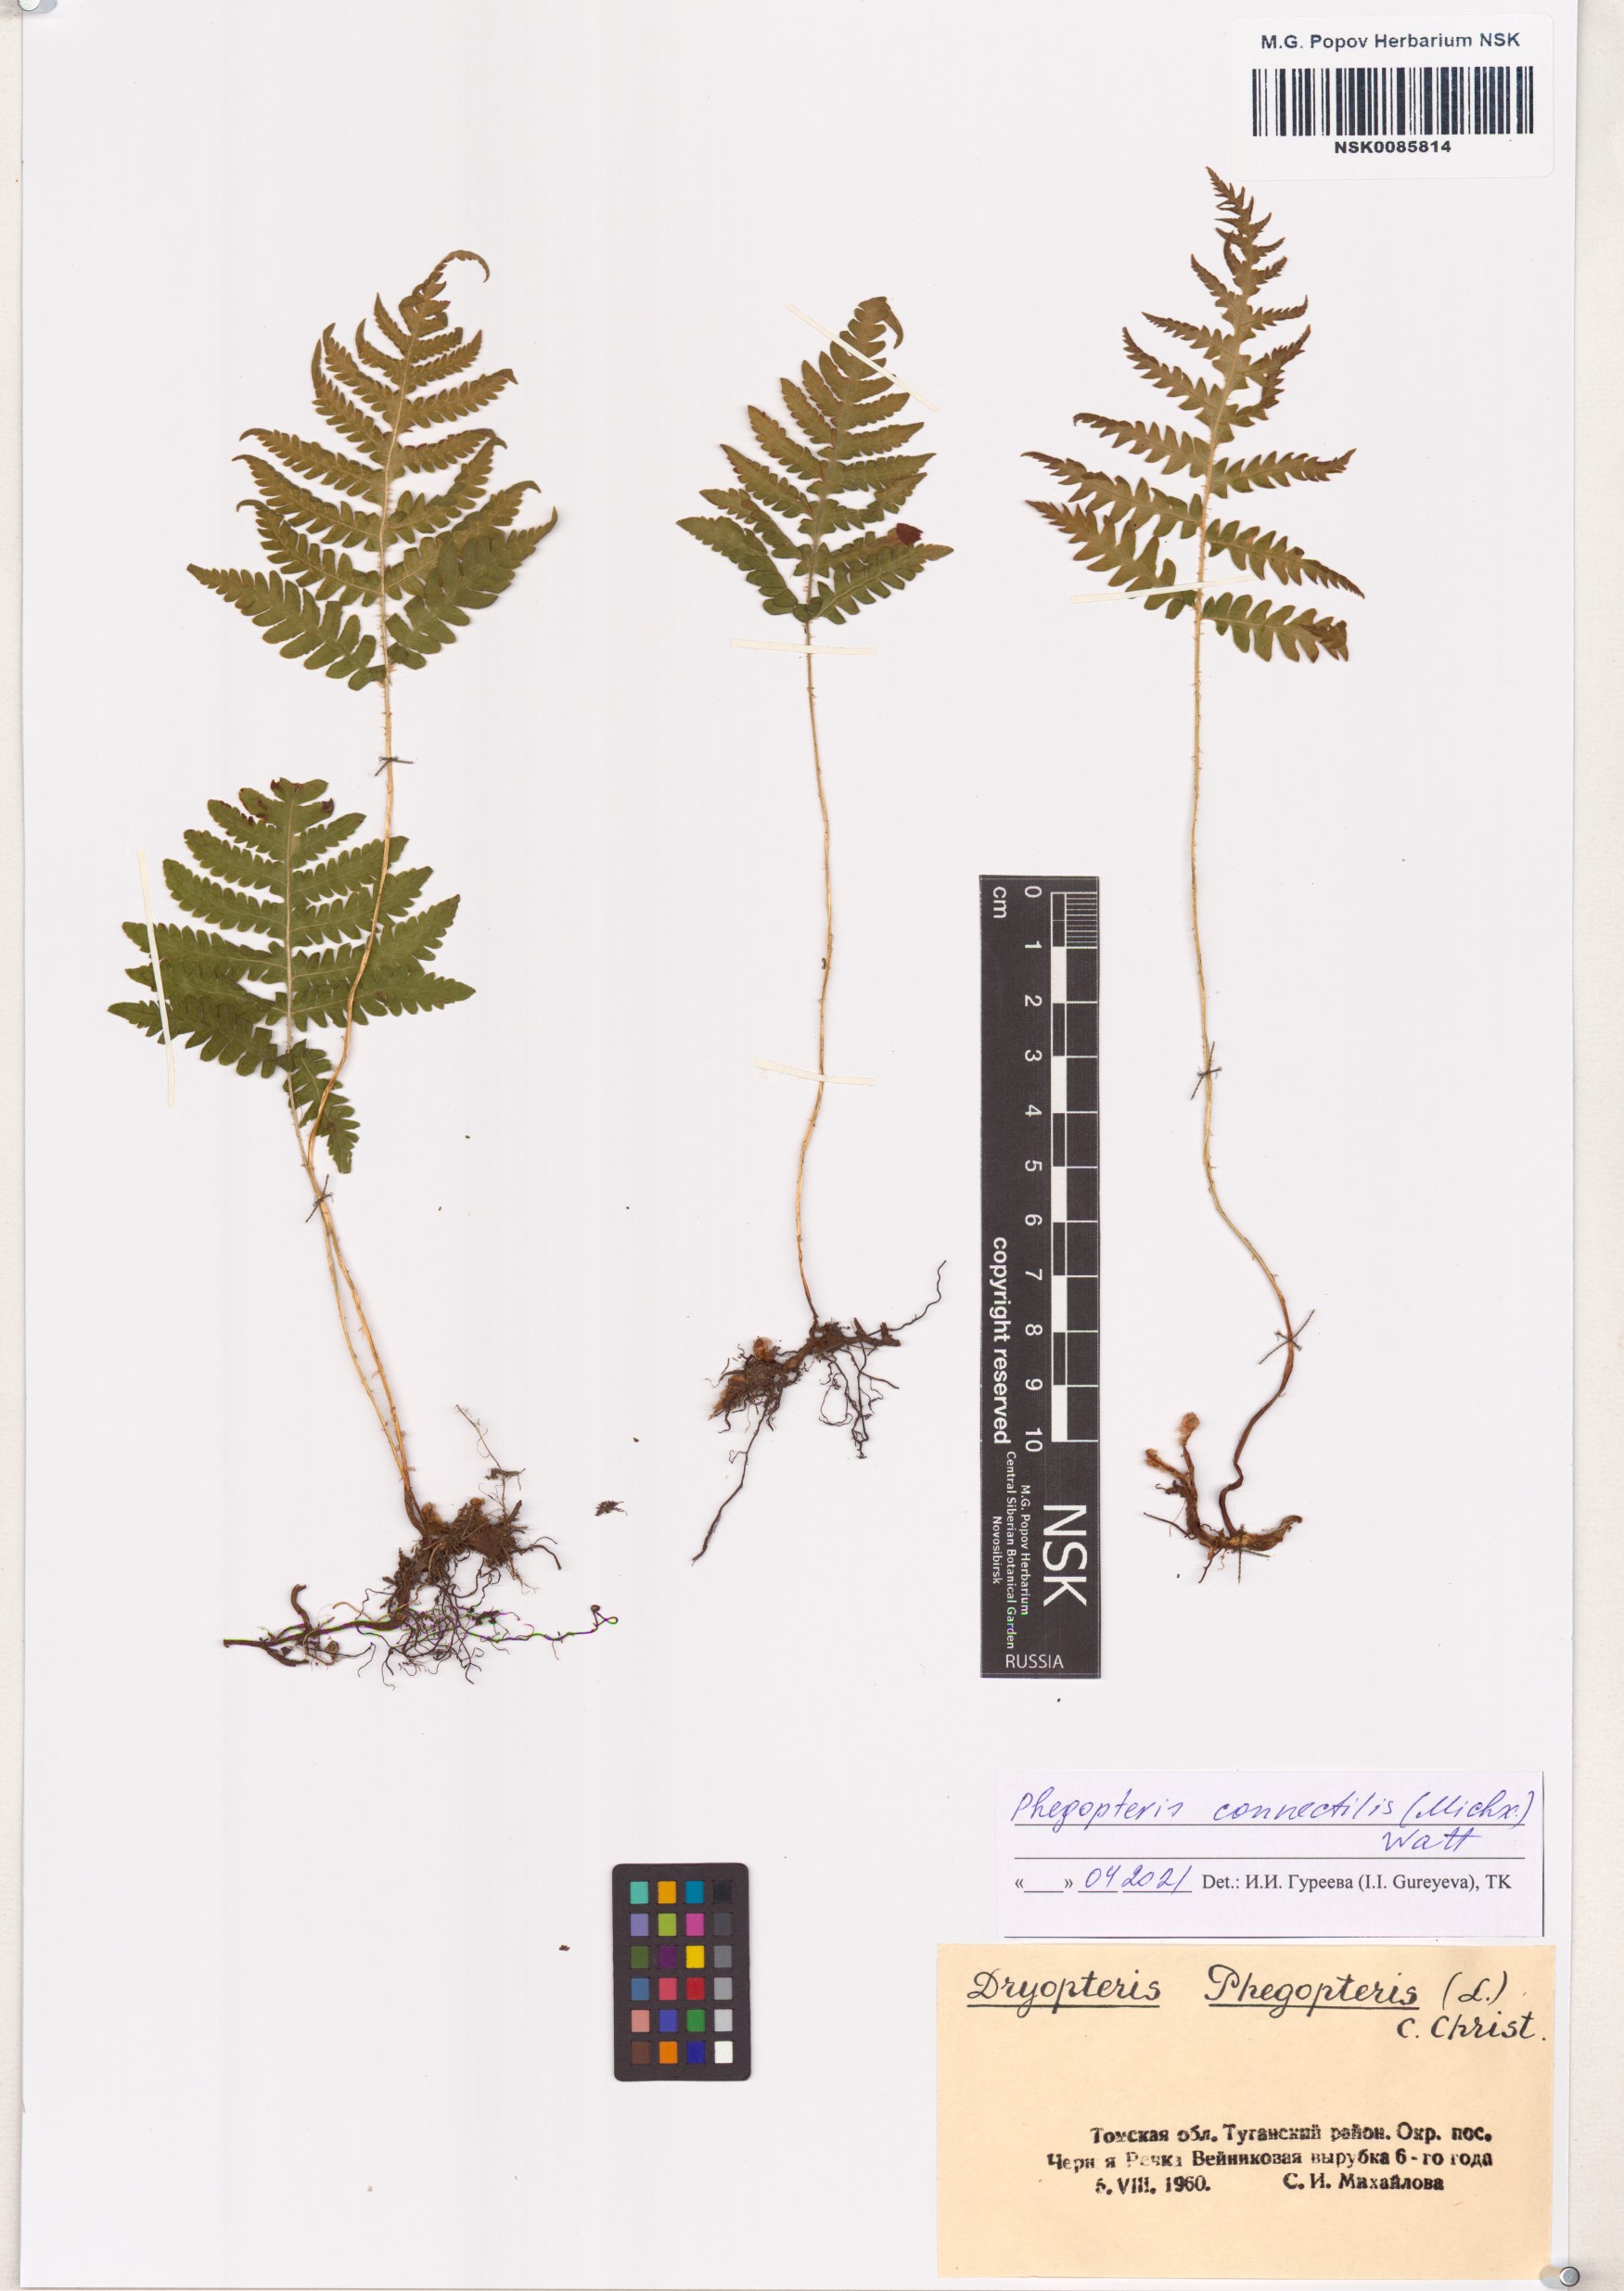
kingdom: Plantae
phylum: Tracheophyta
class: Polypodiopsida
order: Polypodiales
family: Thelypteridaceae
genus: Phegopteris
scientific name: Phegopteris connectilis
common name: Beech fern
